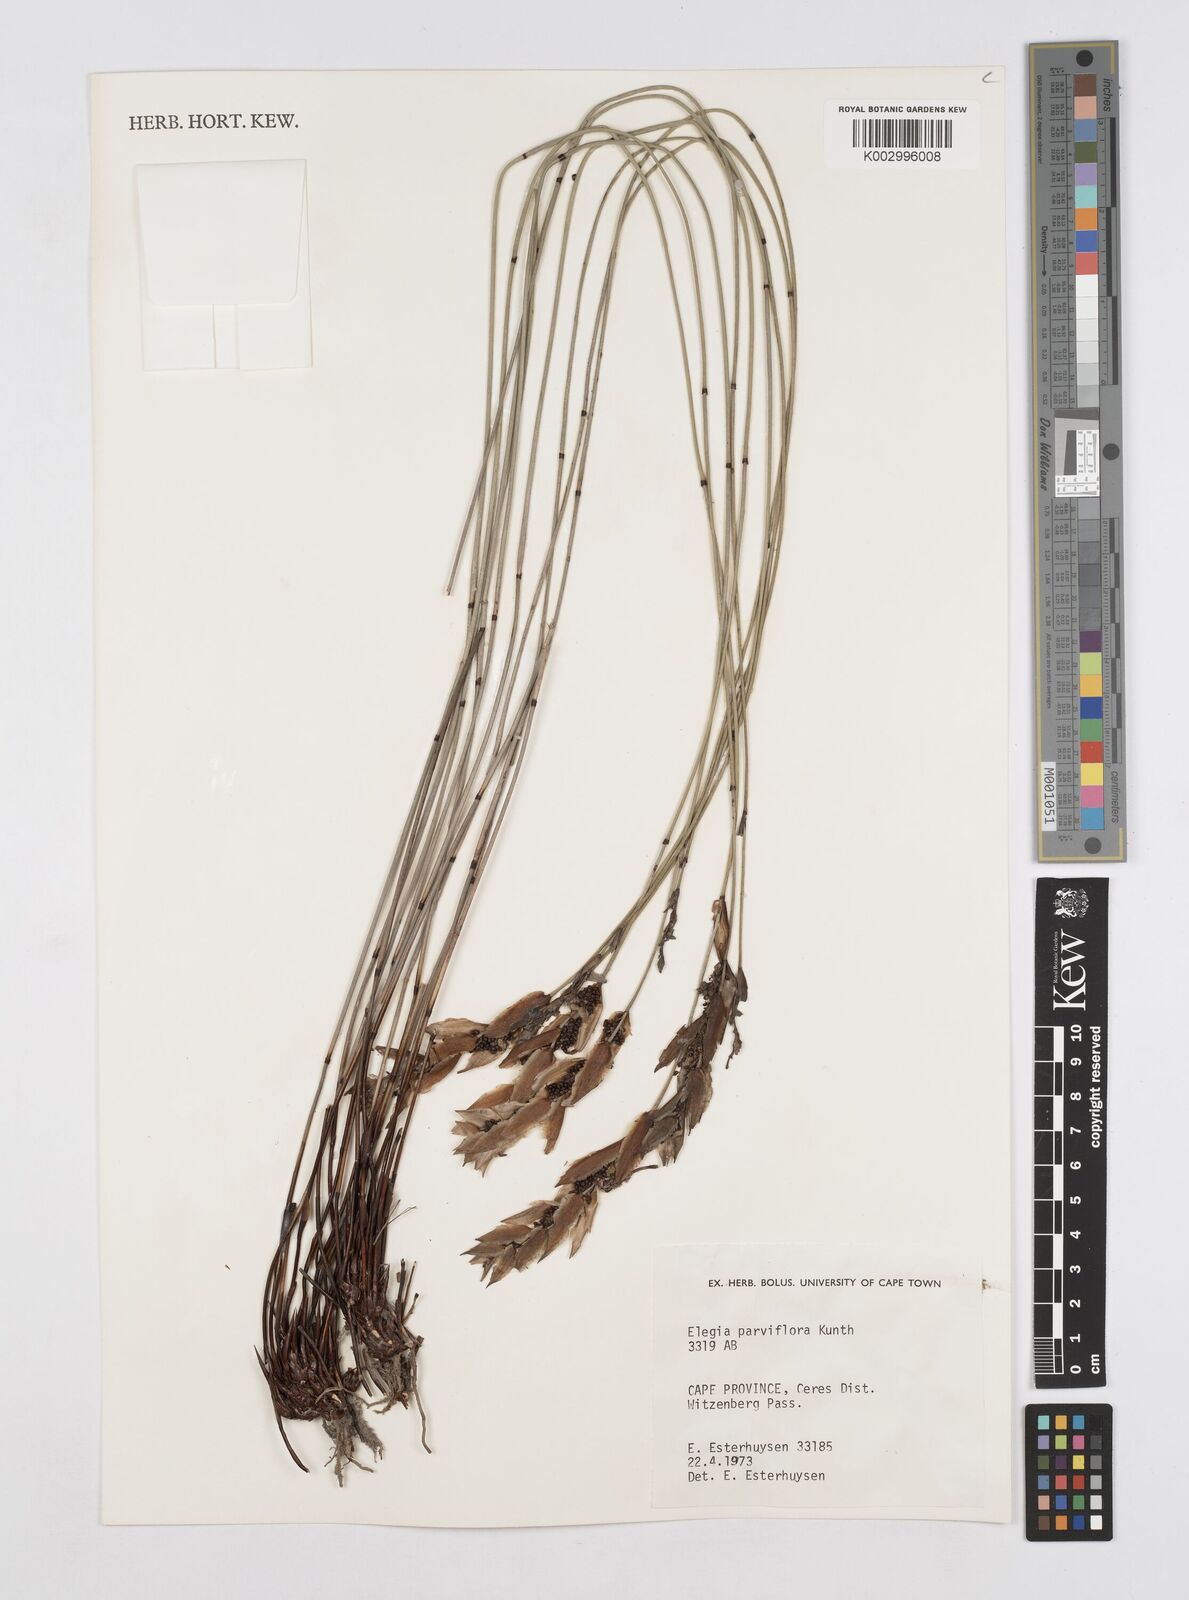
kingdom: Plantae
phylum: Tracheophyta
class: Liliopsida
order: Poales
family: Restionaceae
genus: Cannomois
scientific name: Cannomois parviflora
